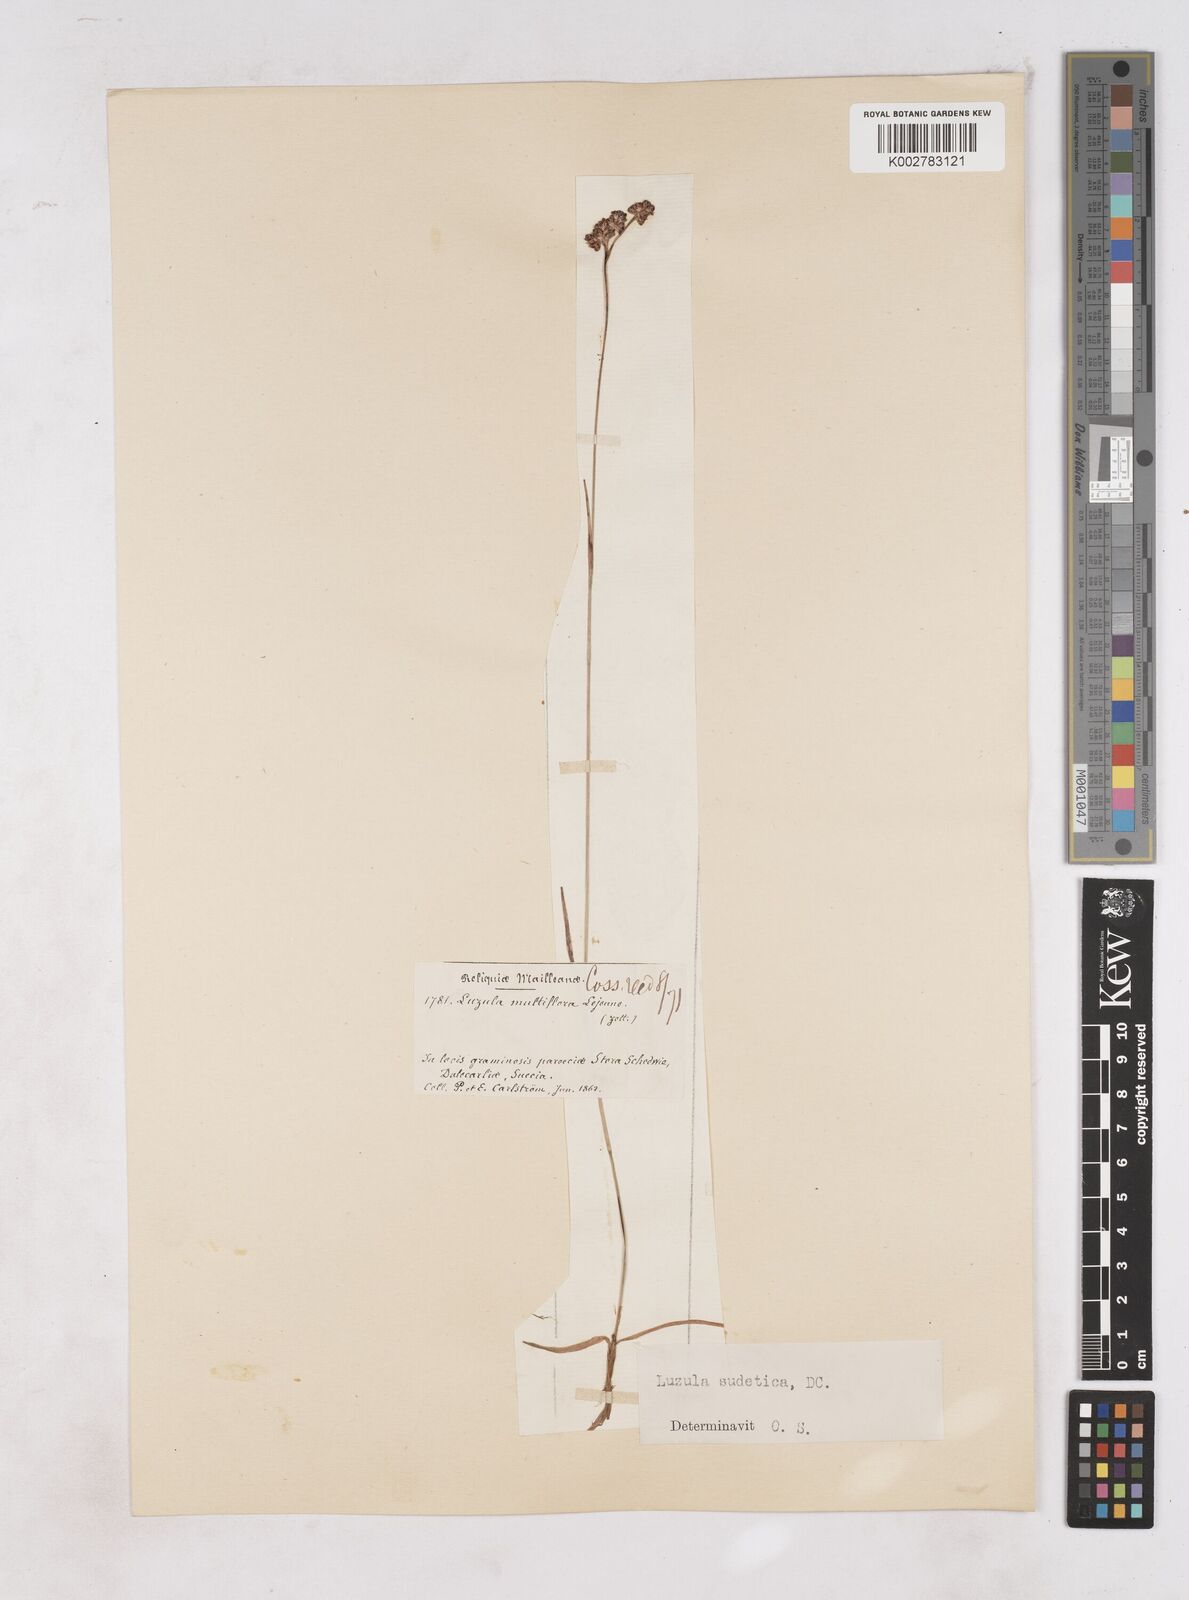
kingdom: Plantae
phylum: Tracheophyta
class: Liliopsida
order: Poales
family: Juncaceae
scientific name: Juncaceae
